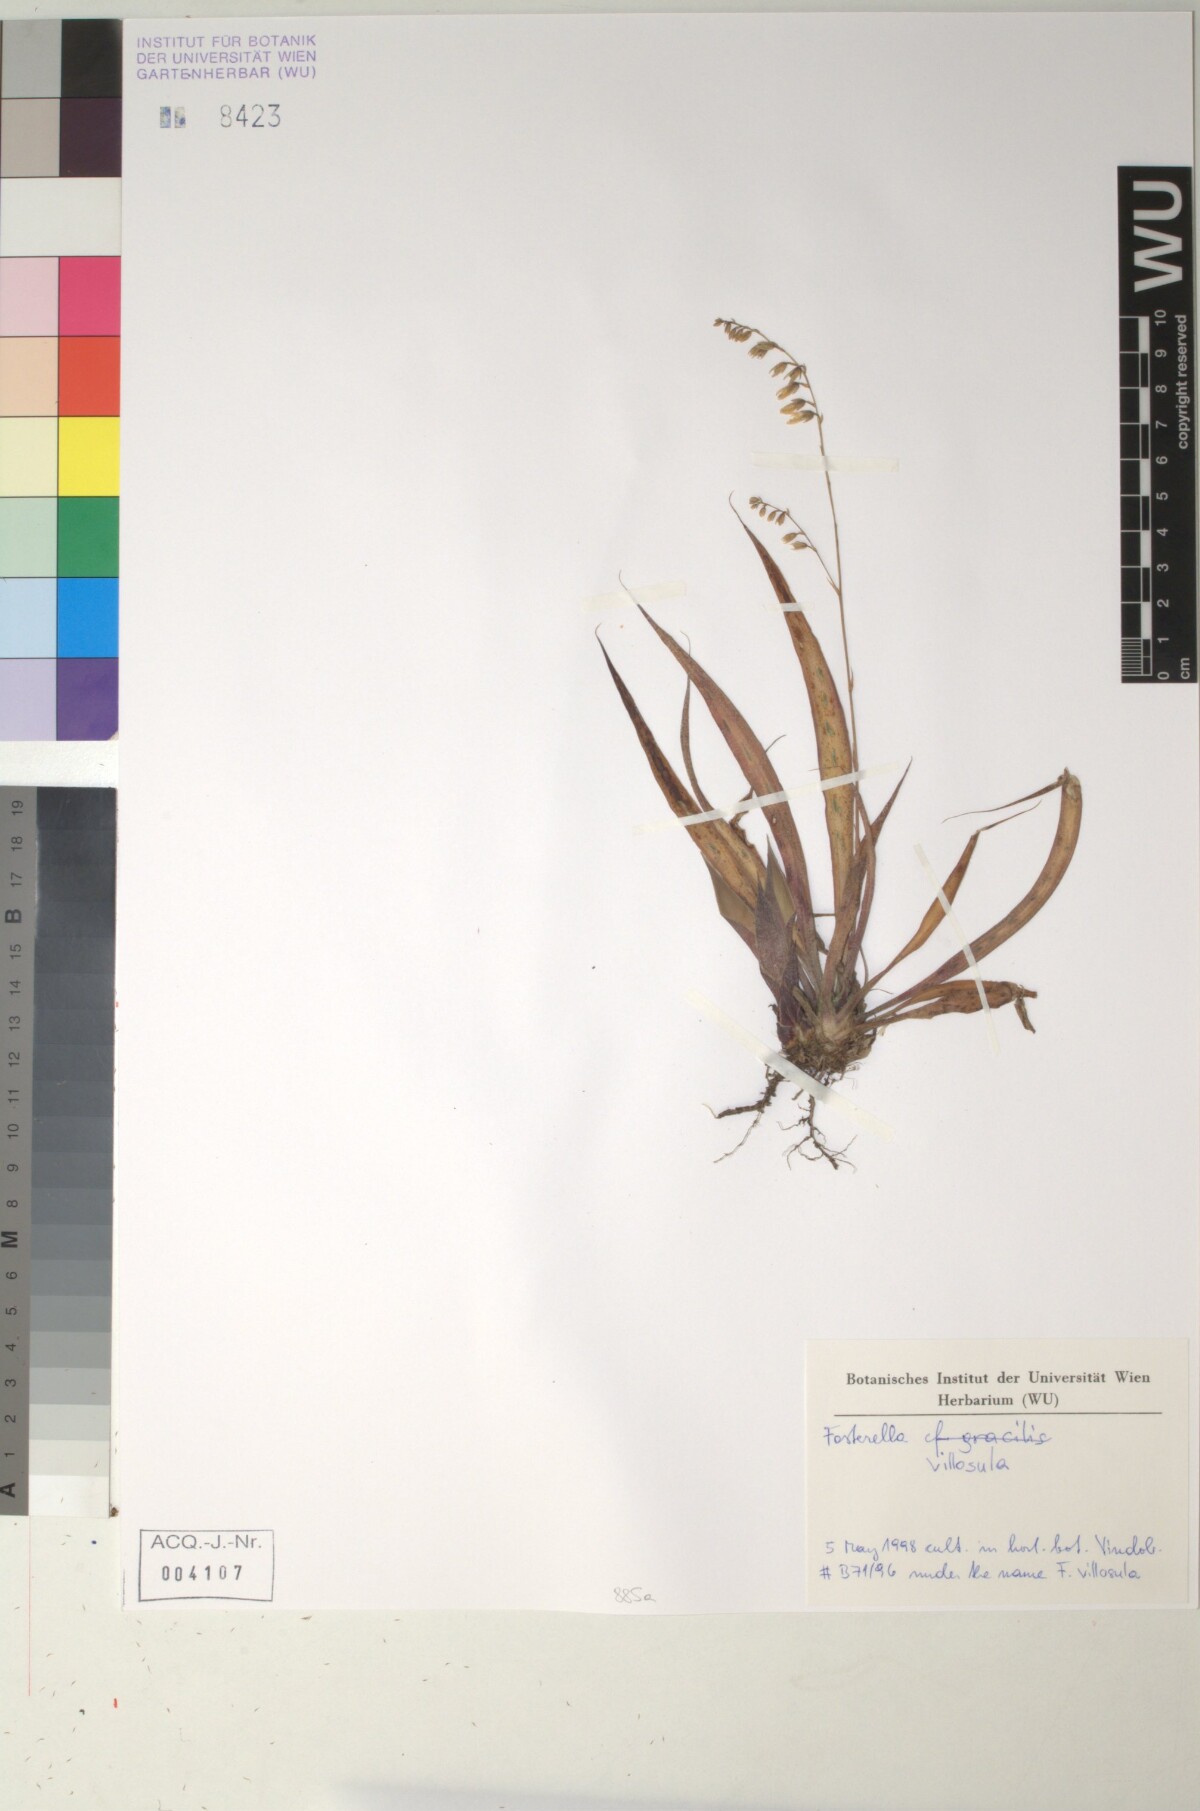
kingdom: Plantae
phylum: Tracheophyta
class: Liliopsida
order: Poales
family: Bromeliaceae
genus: Fosterella
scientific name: Fosterella penduliflora
